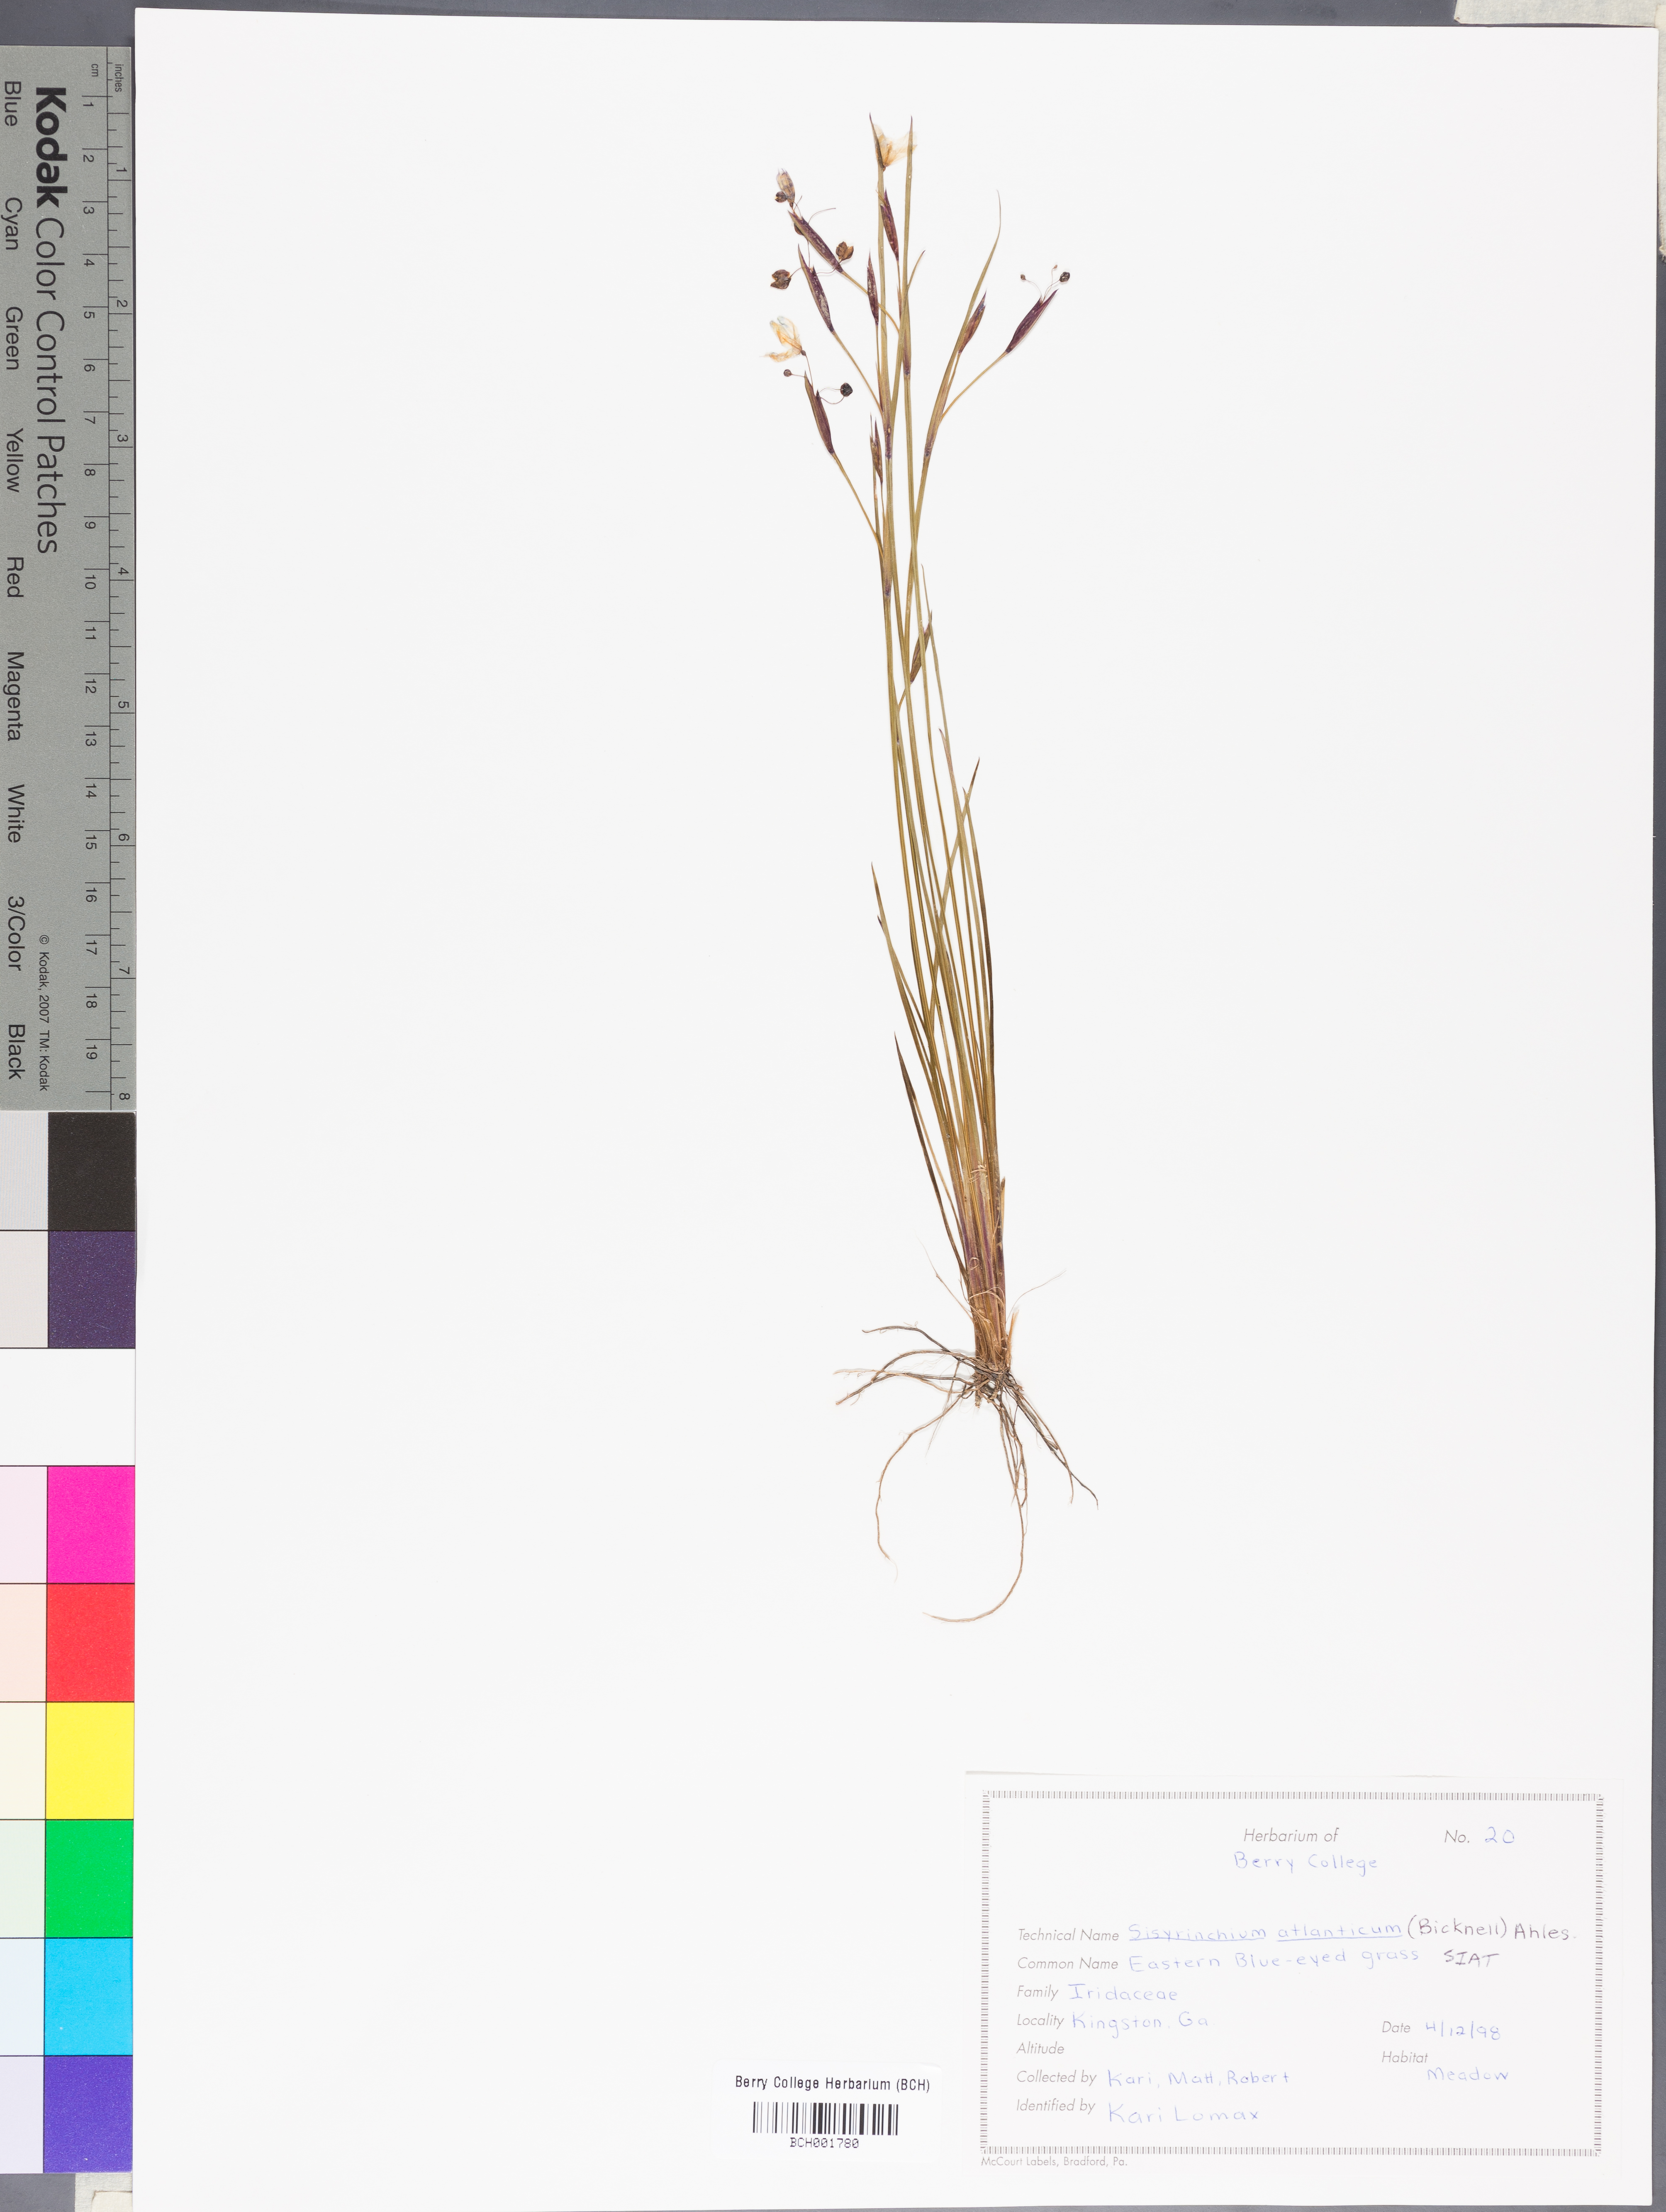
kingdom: Plantae
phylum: Tracheophyta
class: Liliopsida
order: Asparagales
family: Iridaceae
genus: Sisyrinchium
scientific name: Sisyrinchium atlanticum
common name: Eastern blue-eyed-grass
